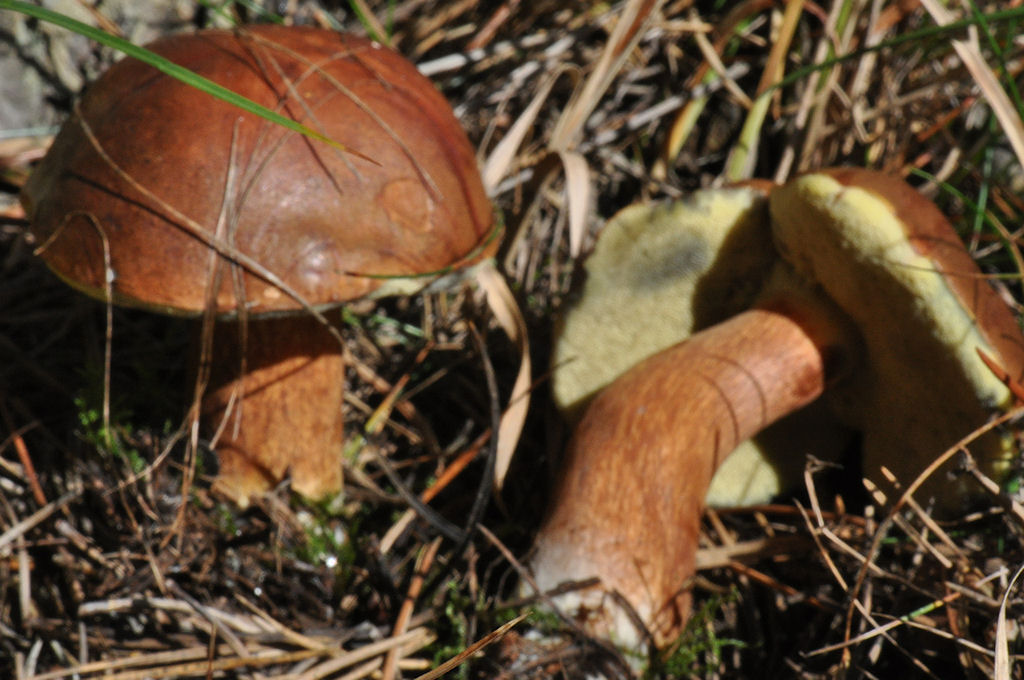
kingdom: Fungi
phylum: Basidiomycota
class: Agaricomycetes
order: Boletales
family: Boletaceae
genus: Imleria
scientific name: Imleria badia
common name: brunstokket rørhat
